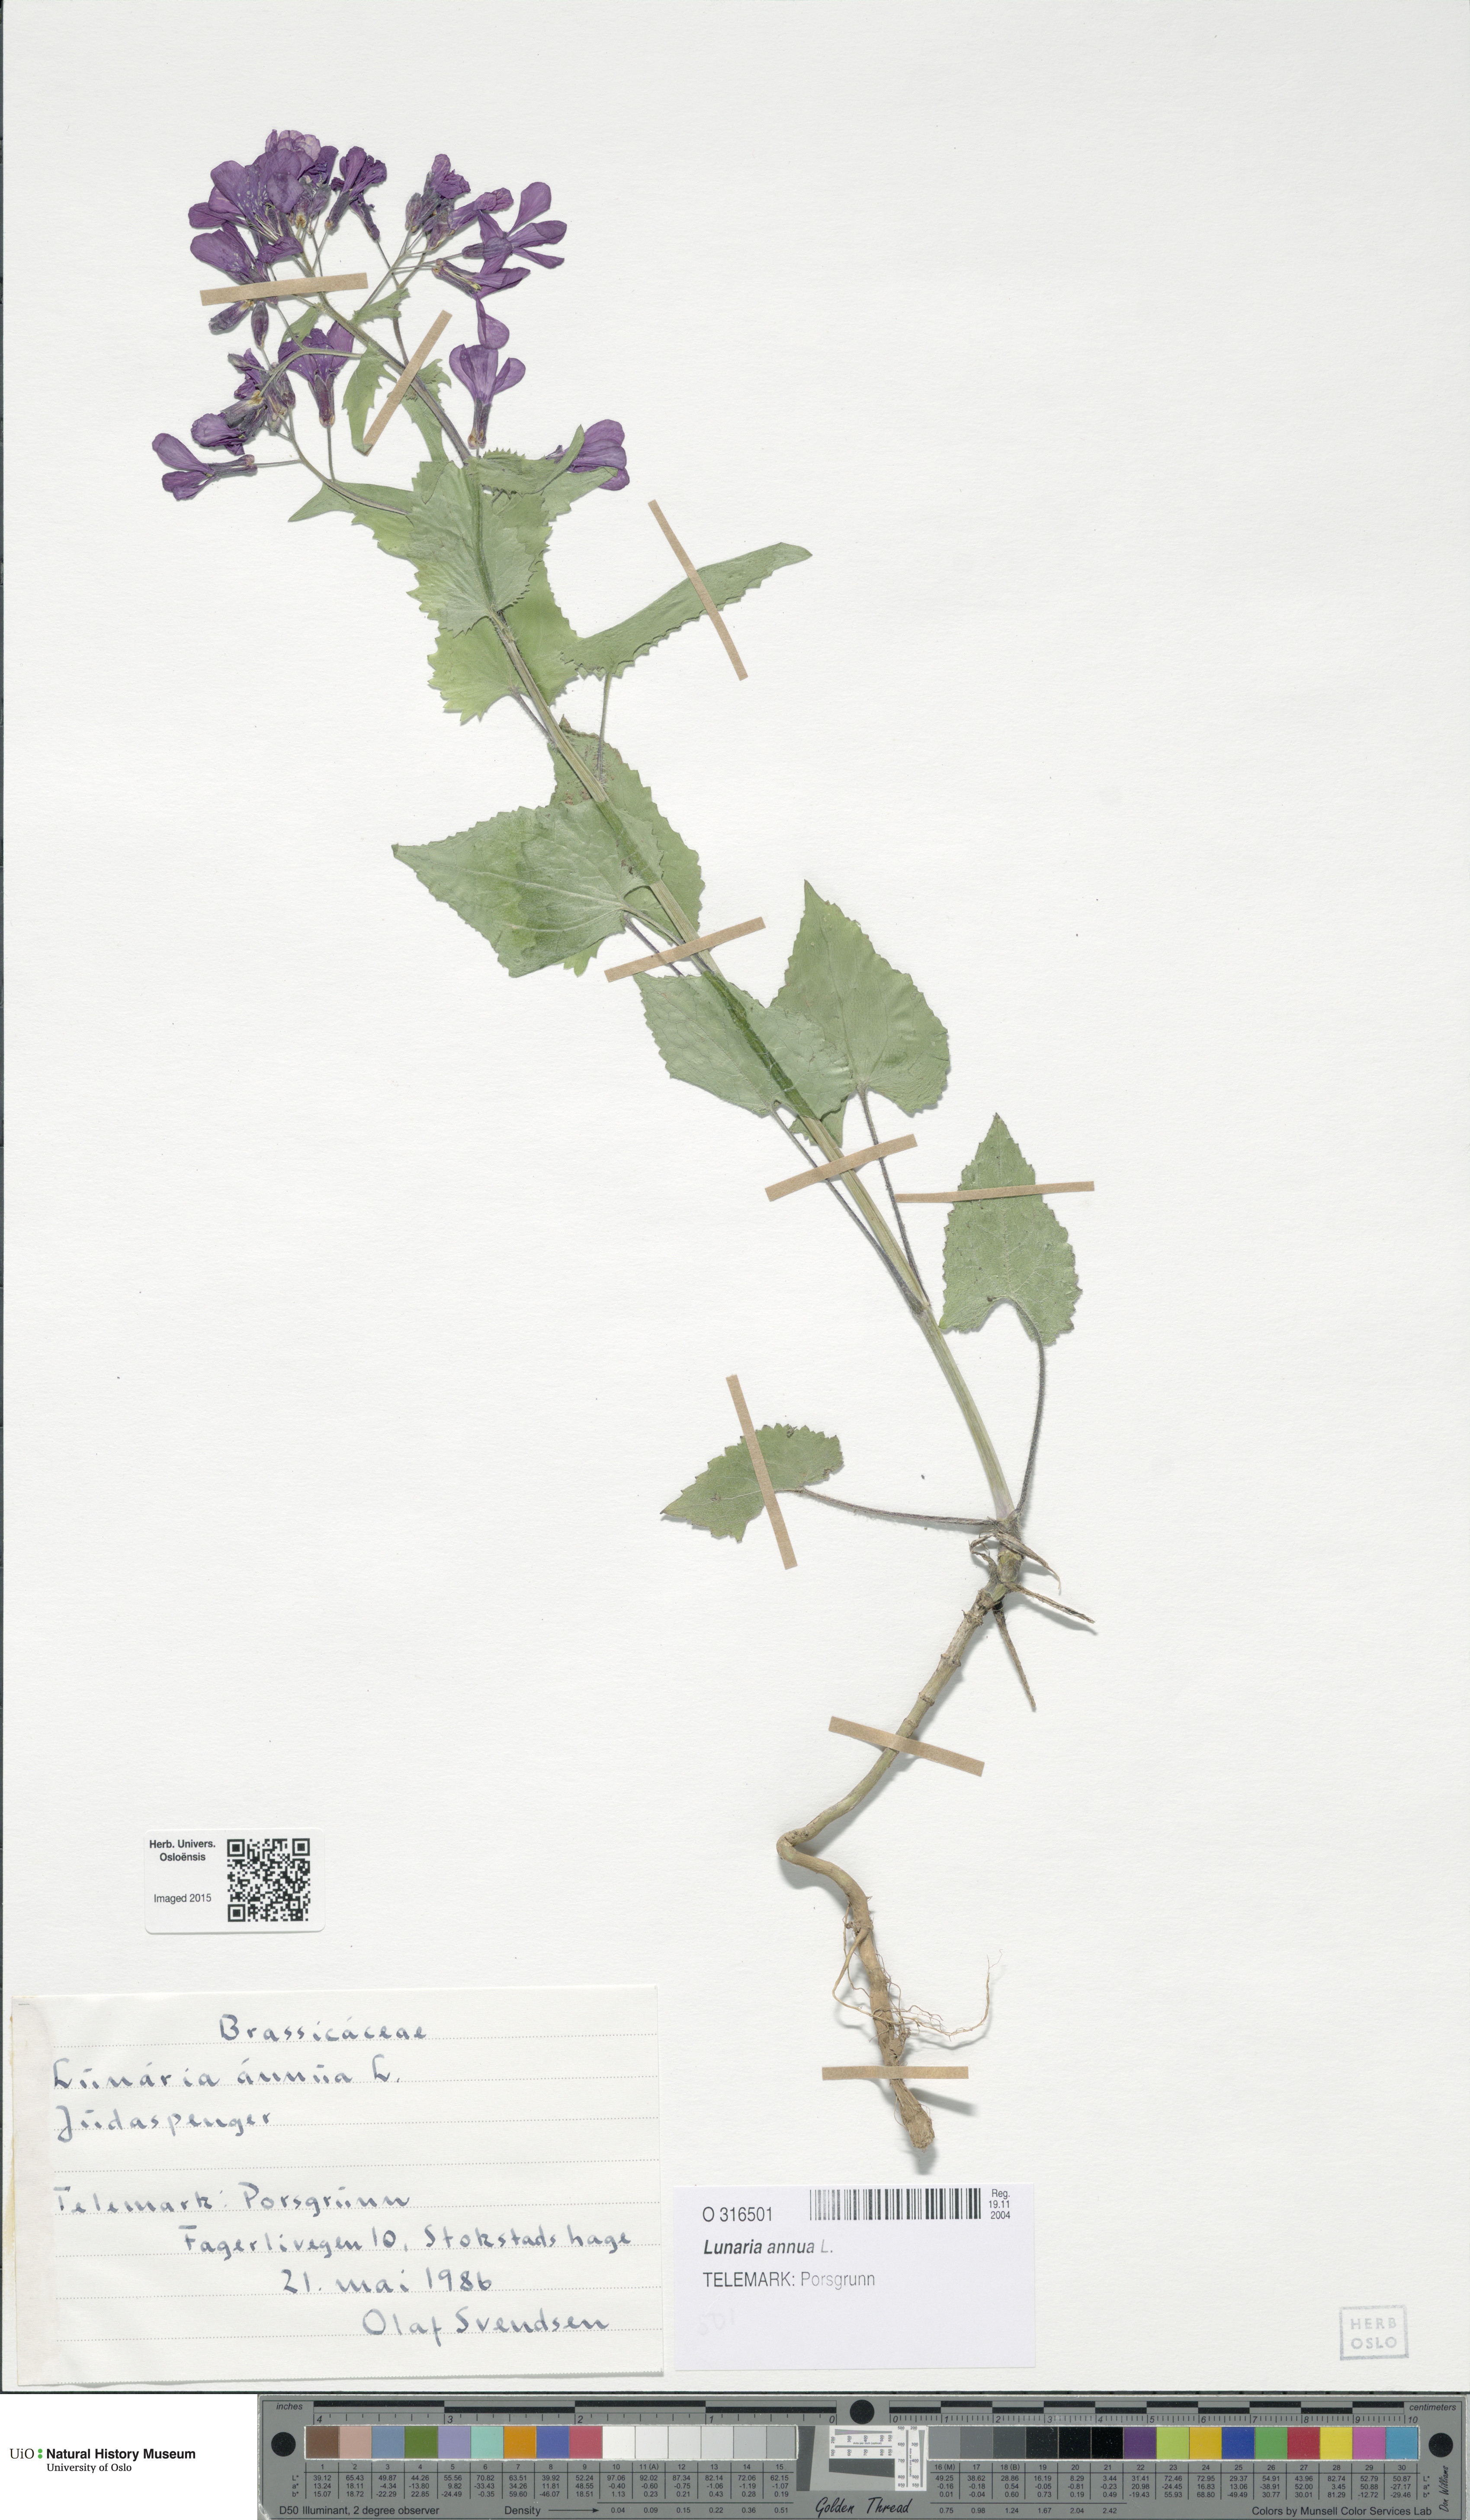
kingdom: Plantae
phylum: Tracheophyta
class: Magnoliopsida
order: Brassicales
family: Brassicaceae
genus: Lunaria
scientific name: Lunaria annua
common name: Honesty
